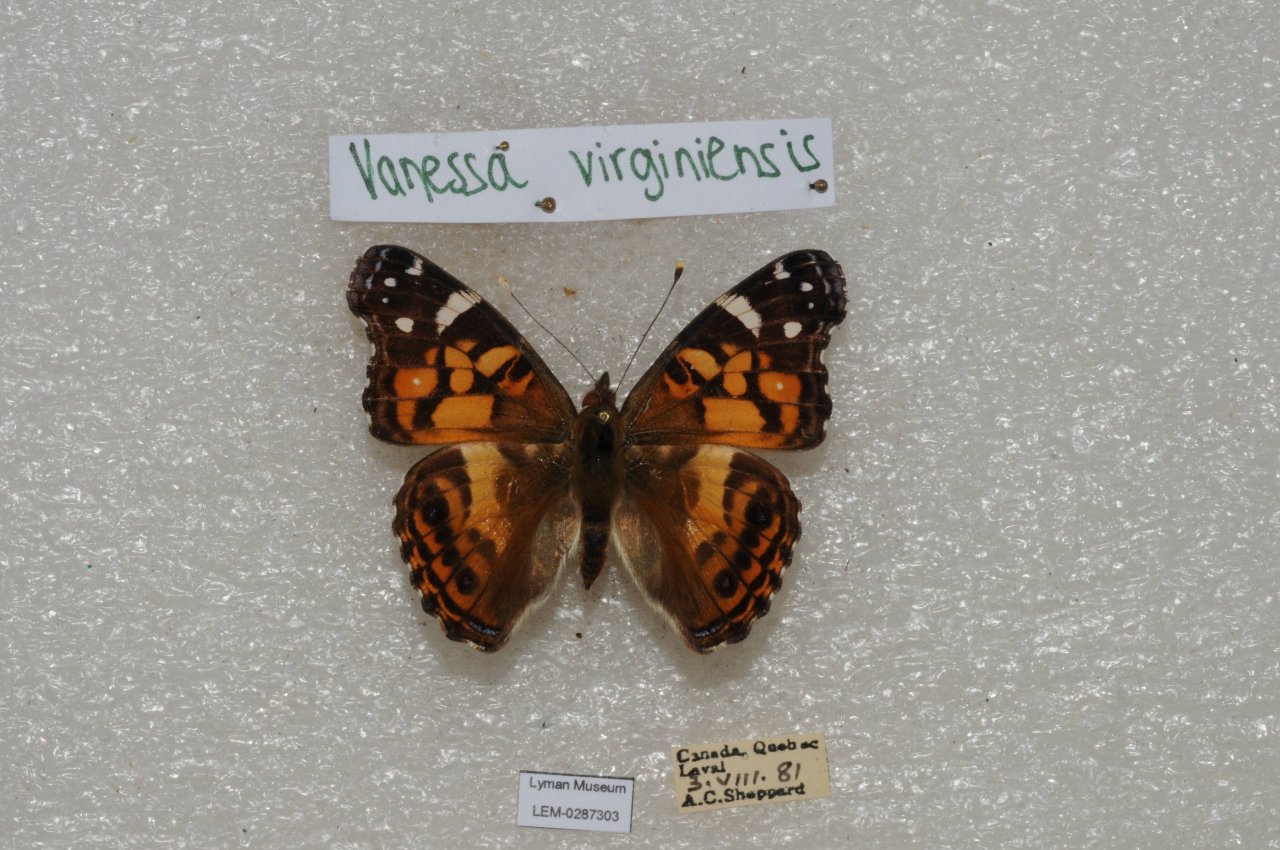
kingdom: Animalia
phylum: Arthropoda
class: Insecta
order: Lepidoptera
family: Nymphalidae
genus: Vanessa
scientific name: Vanessa virginiensis
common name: American Lady
